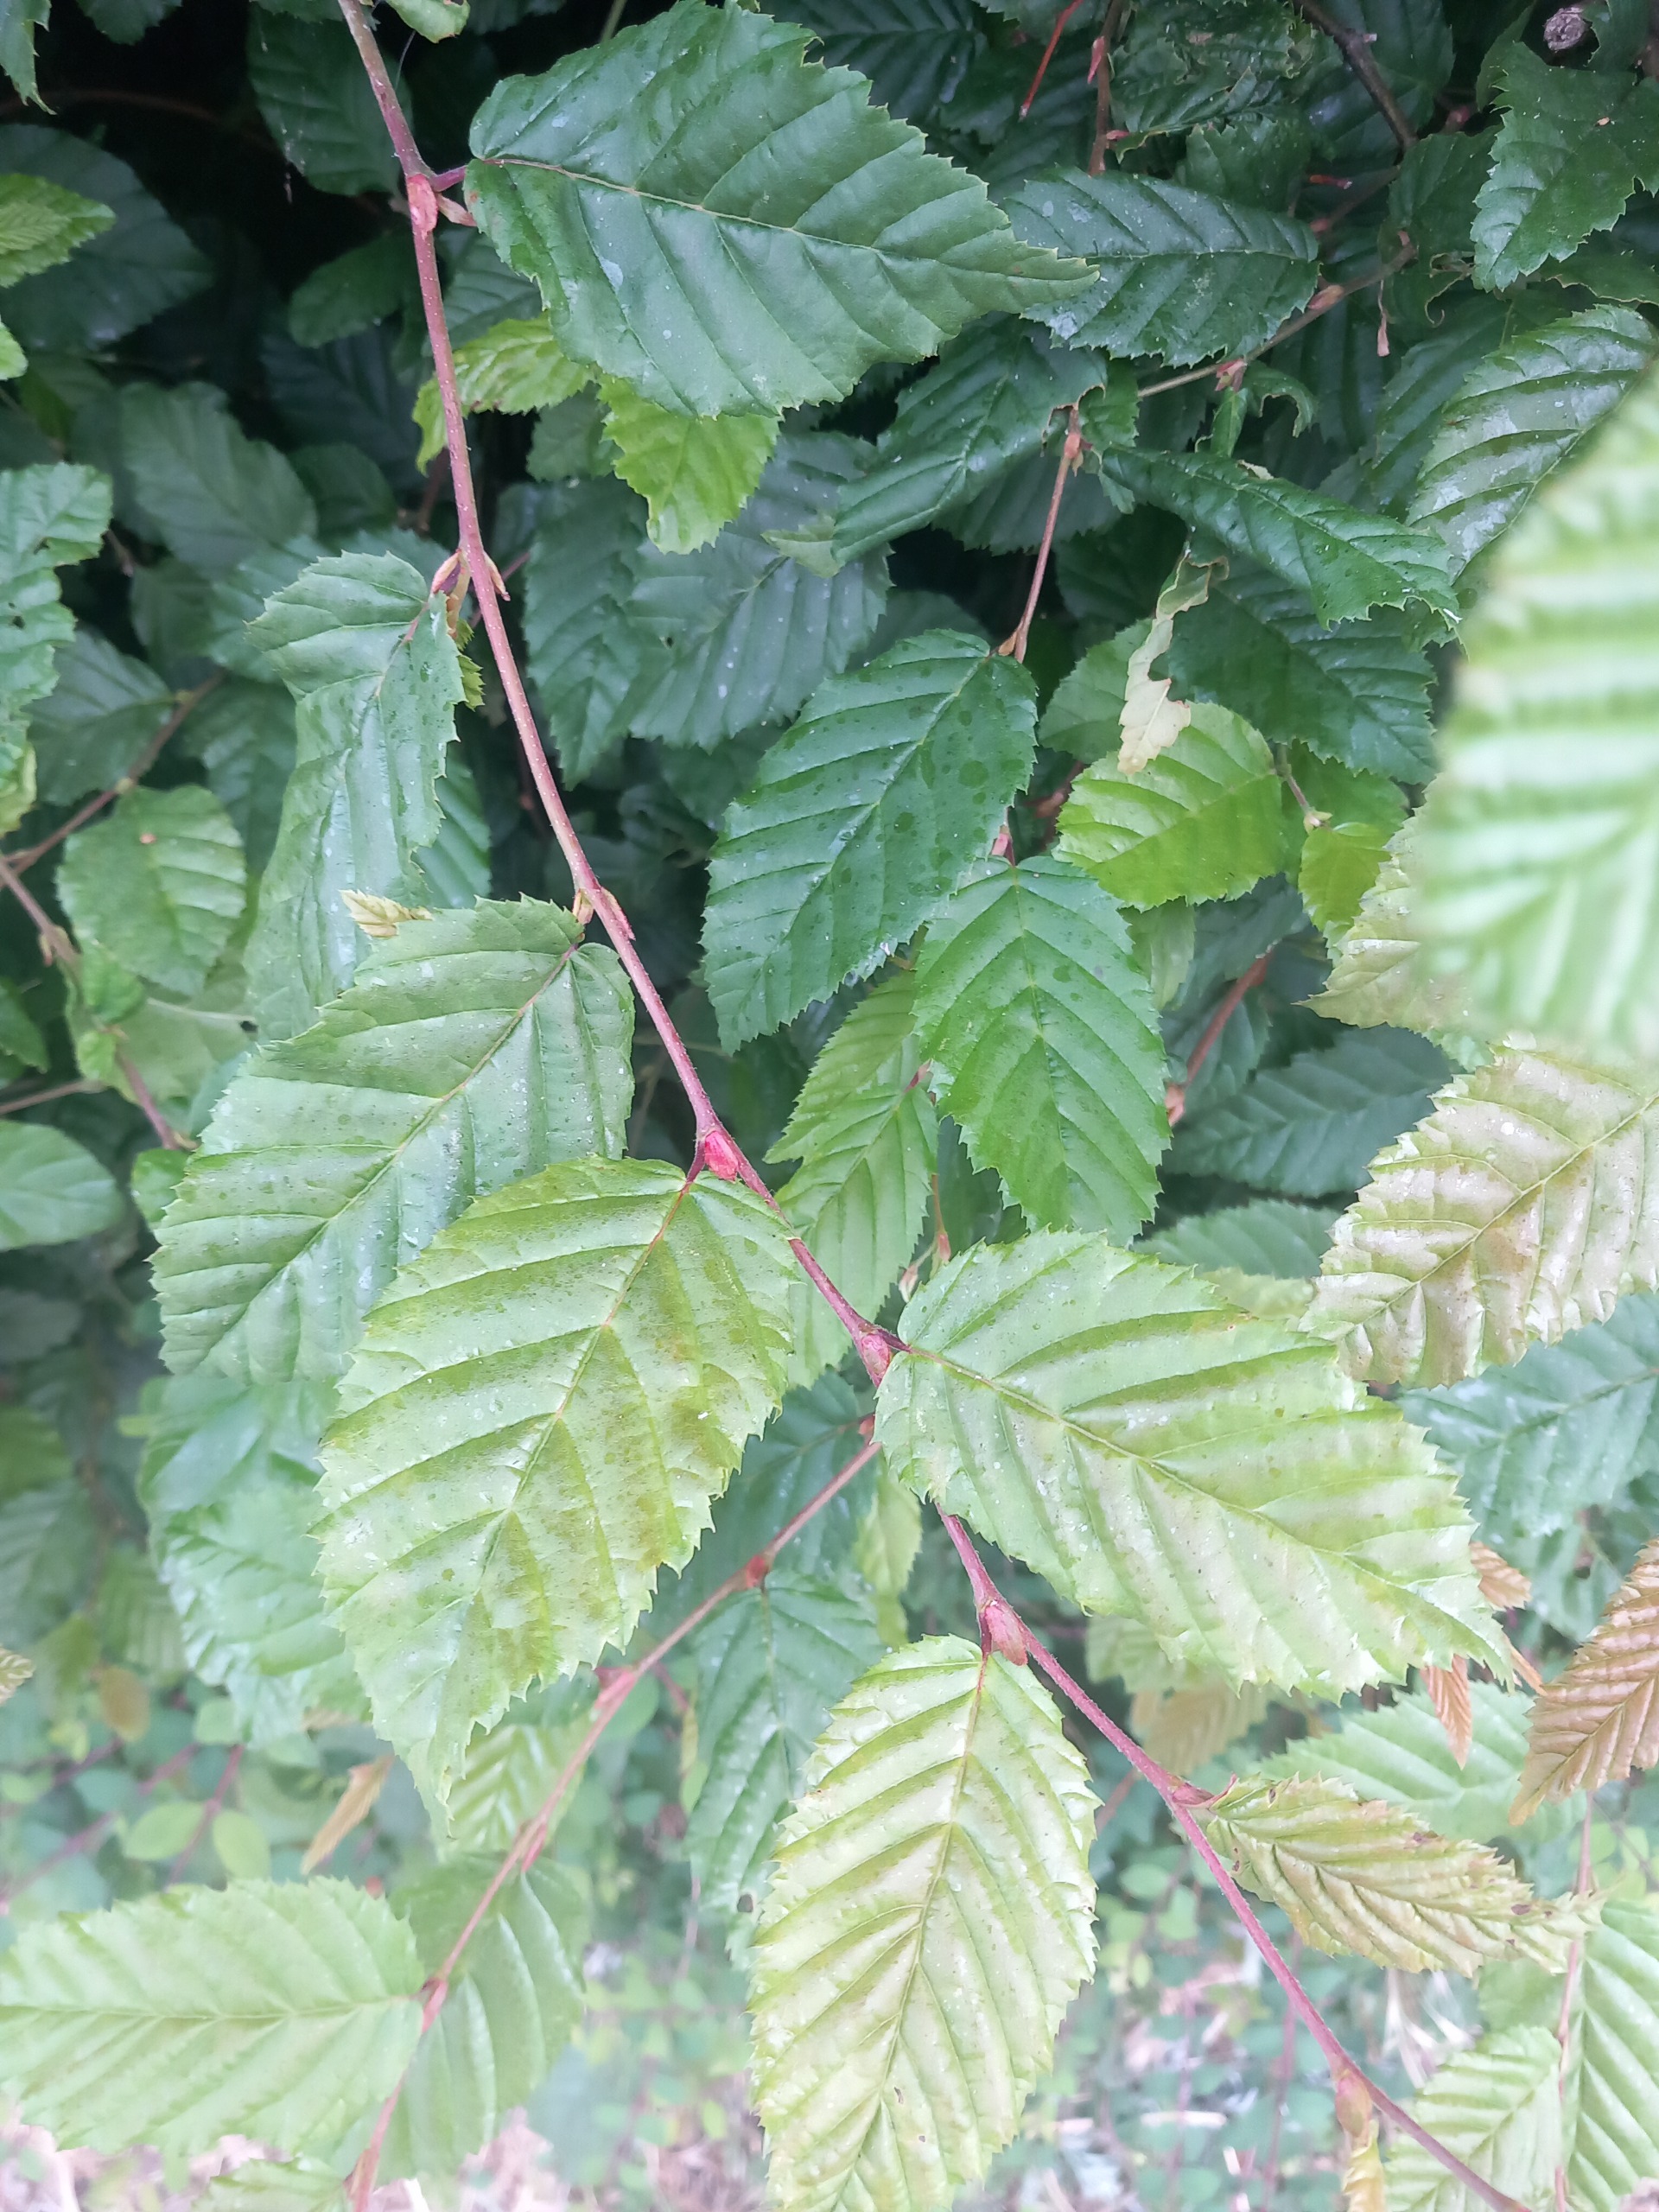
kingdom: Plantae
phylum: Tracheophyta
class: Magnoliopsida
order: Fagales
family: Betulaceae
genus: Carpinus
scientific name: Carpinus betulus
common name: Avnbøg
